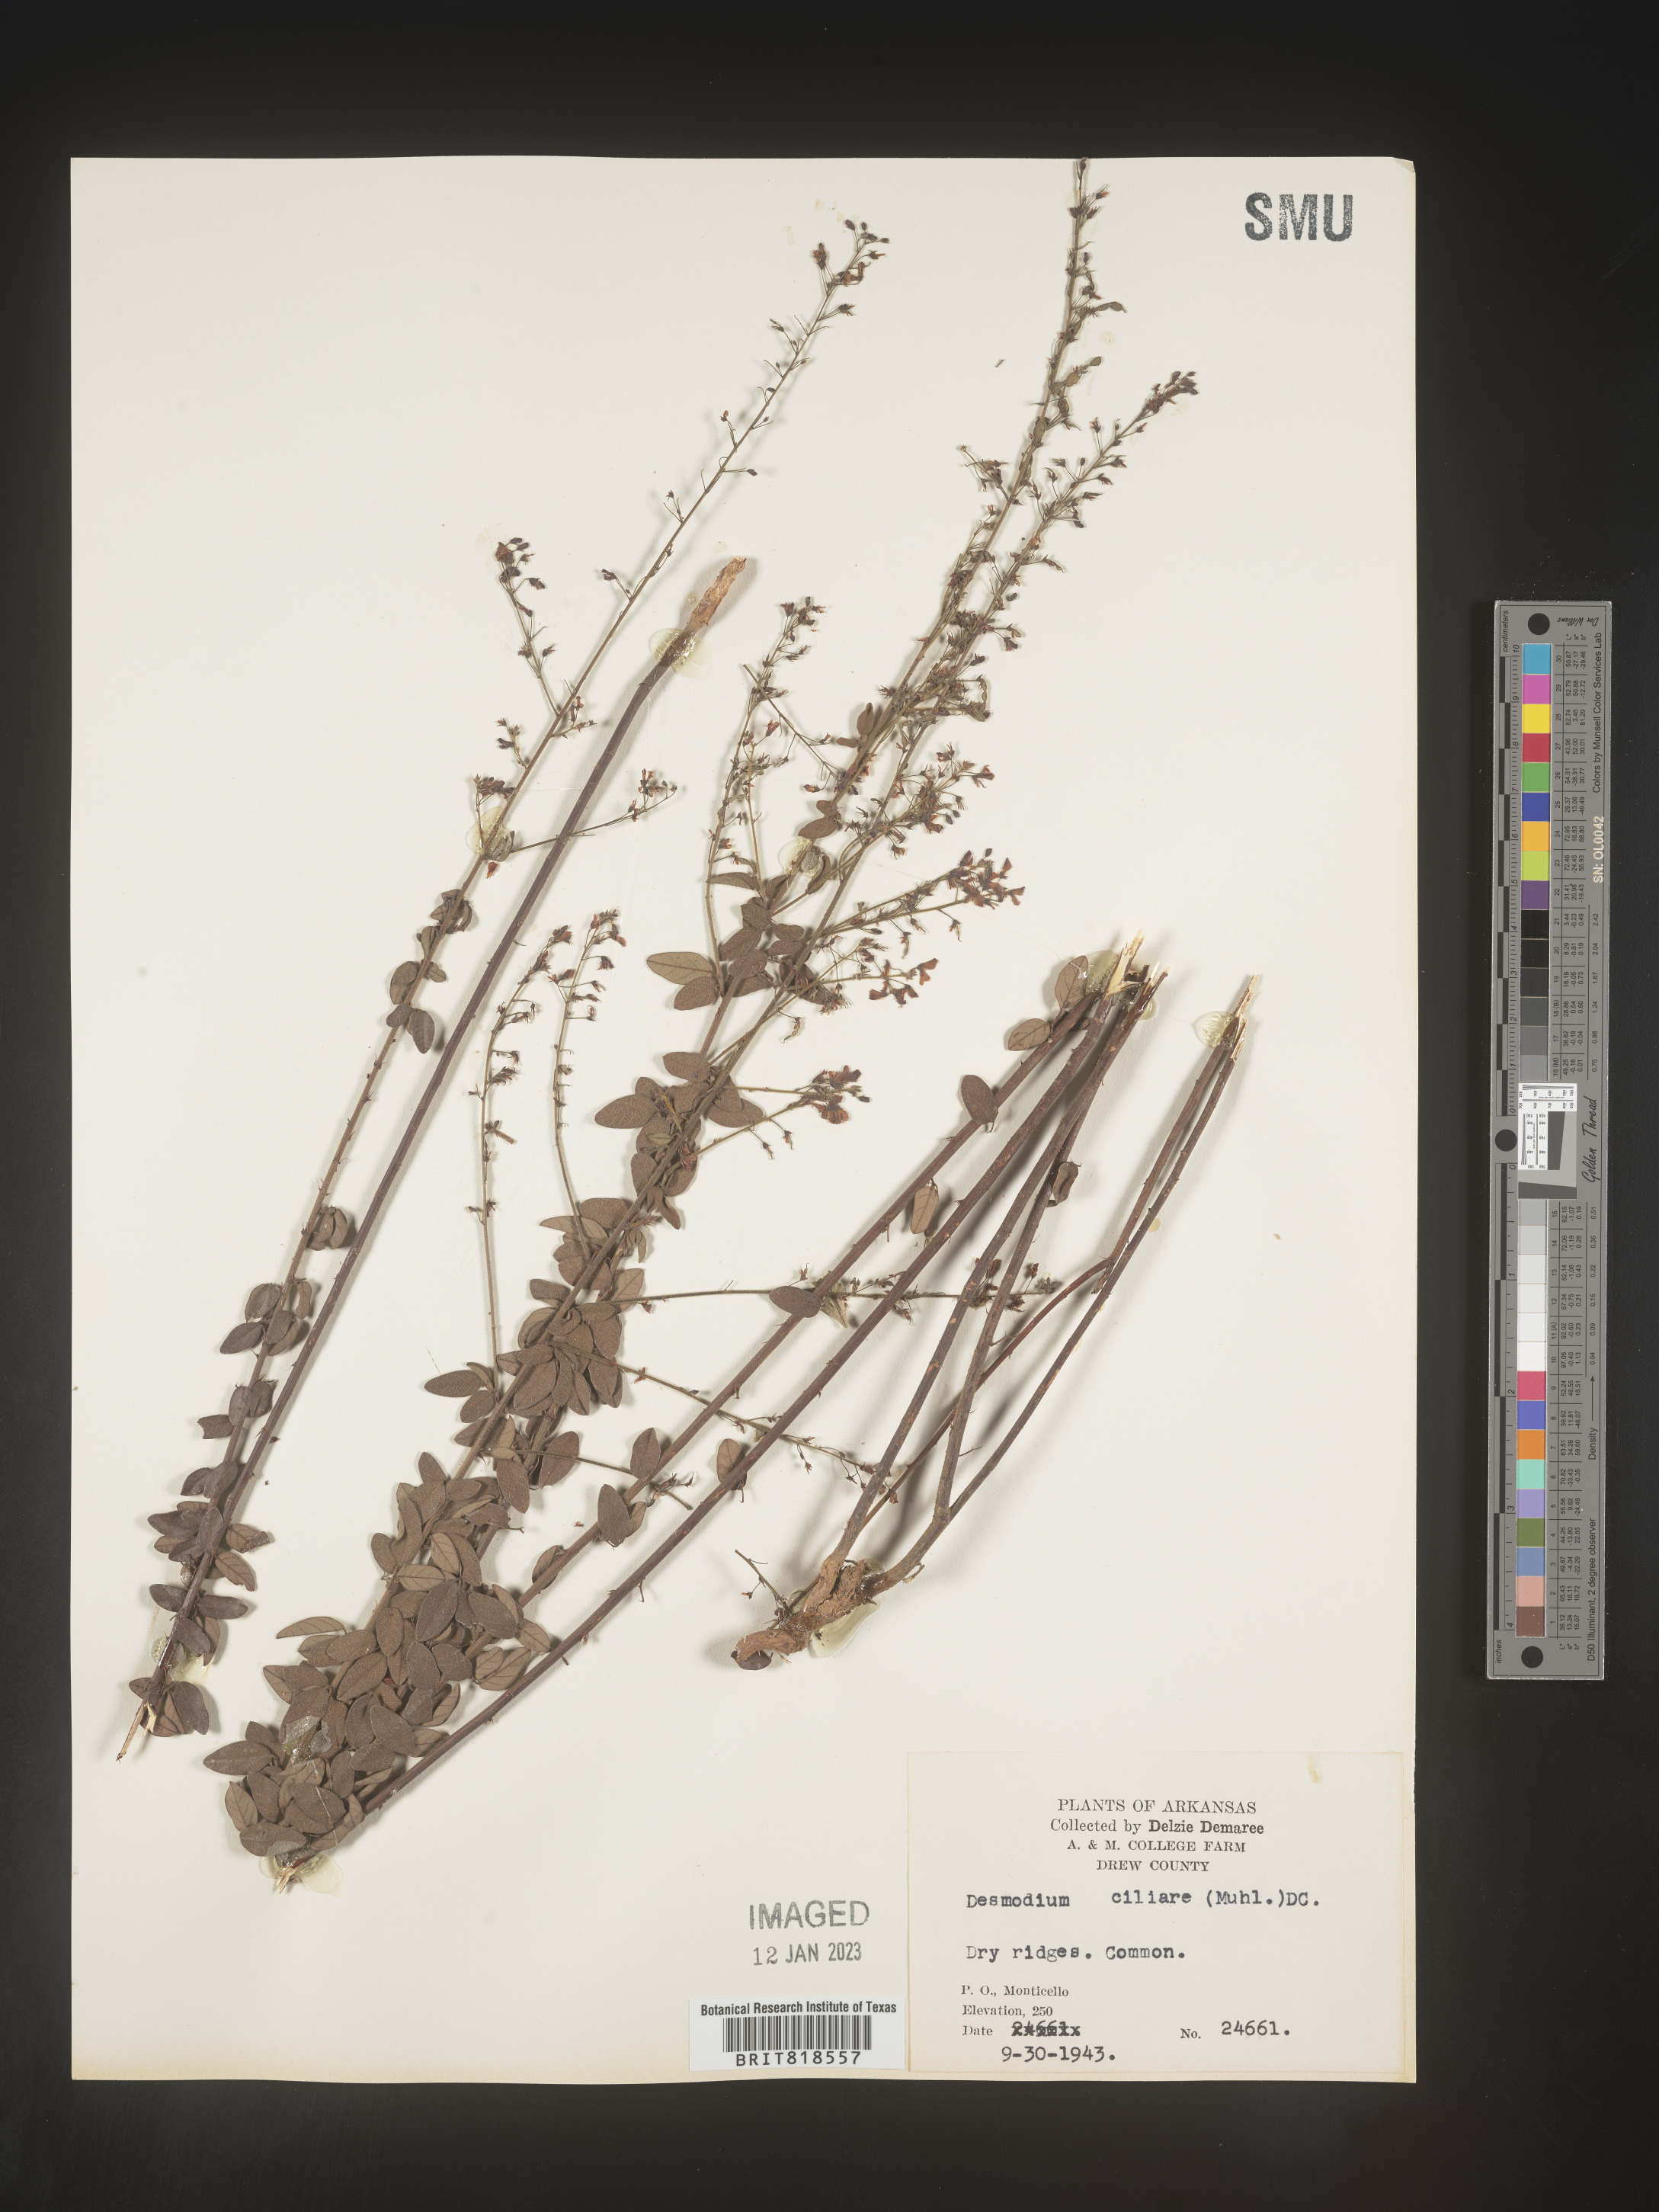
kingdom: Plantae
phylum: Tracheophyta
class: Magnoliopsida
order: Fabales
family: Fabaceae
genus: Desmodium
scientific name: Desmodium ciliare
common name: Hairy small-leaf ticktrefoil
